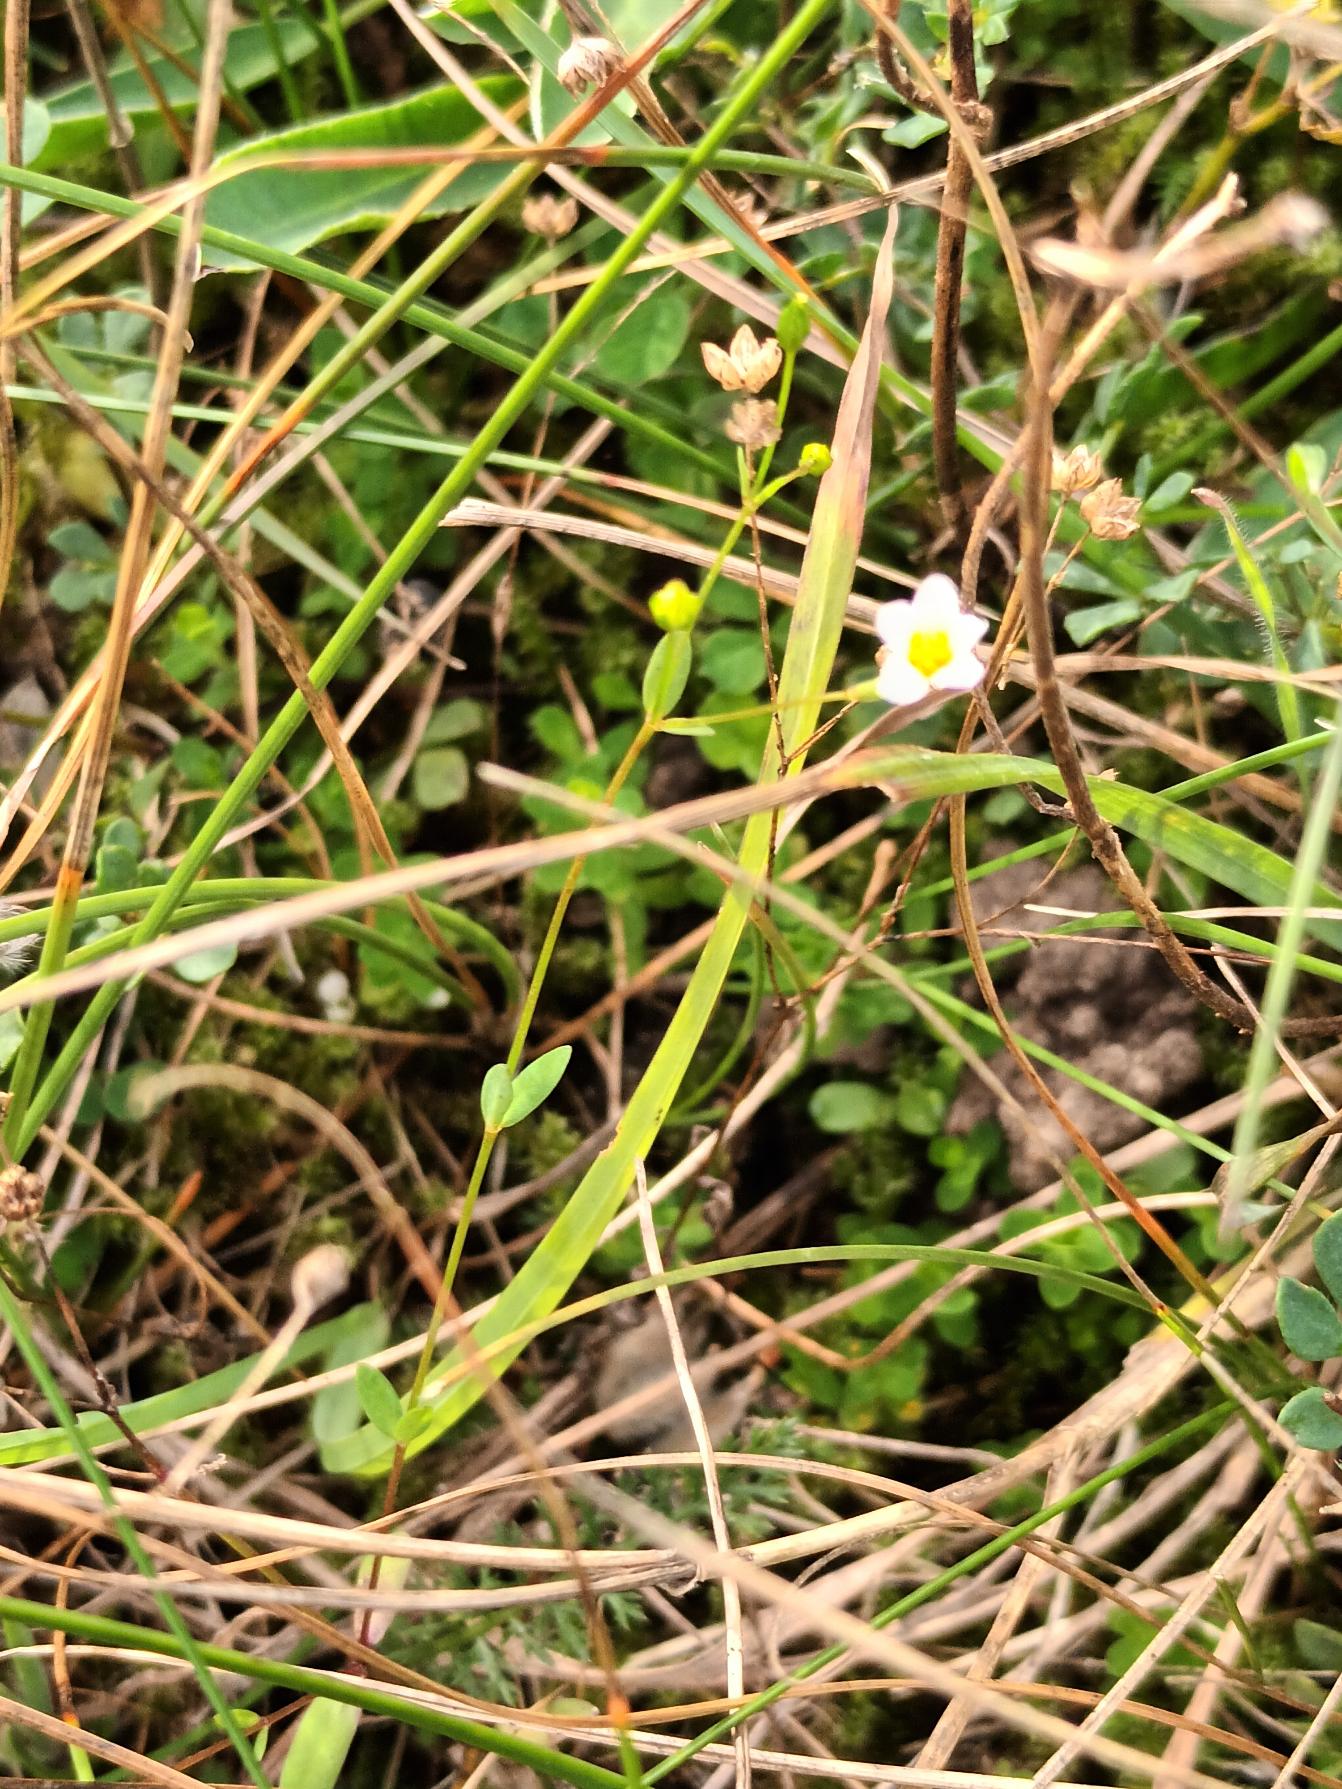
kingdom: Plantae
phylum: Tracheophyta
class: Magnoliopsida
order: Malpighiales
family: Linaceae
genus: Linum
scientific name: Linum catharticum
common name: Vild hør
